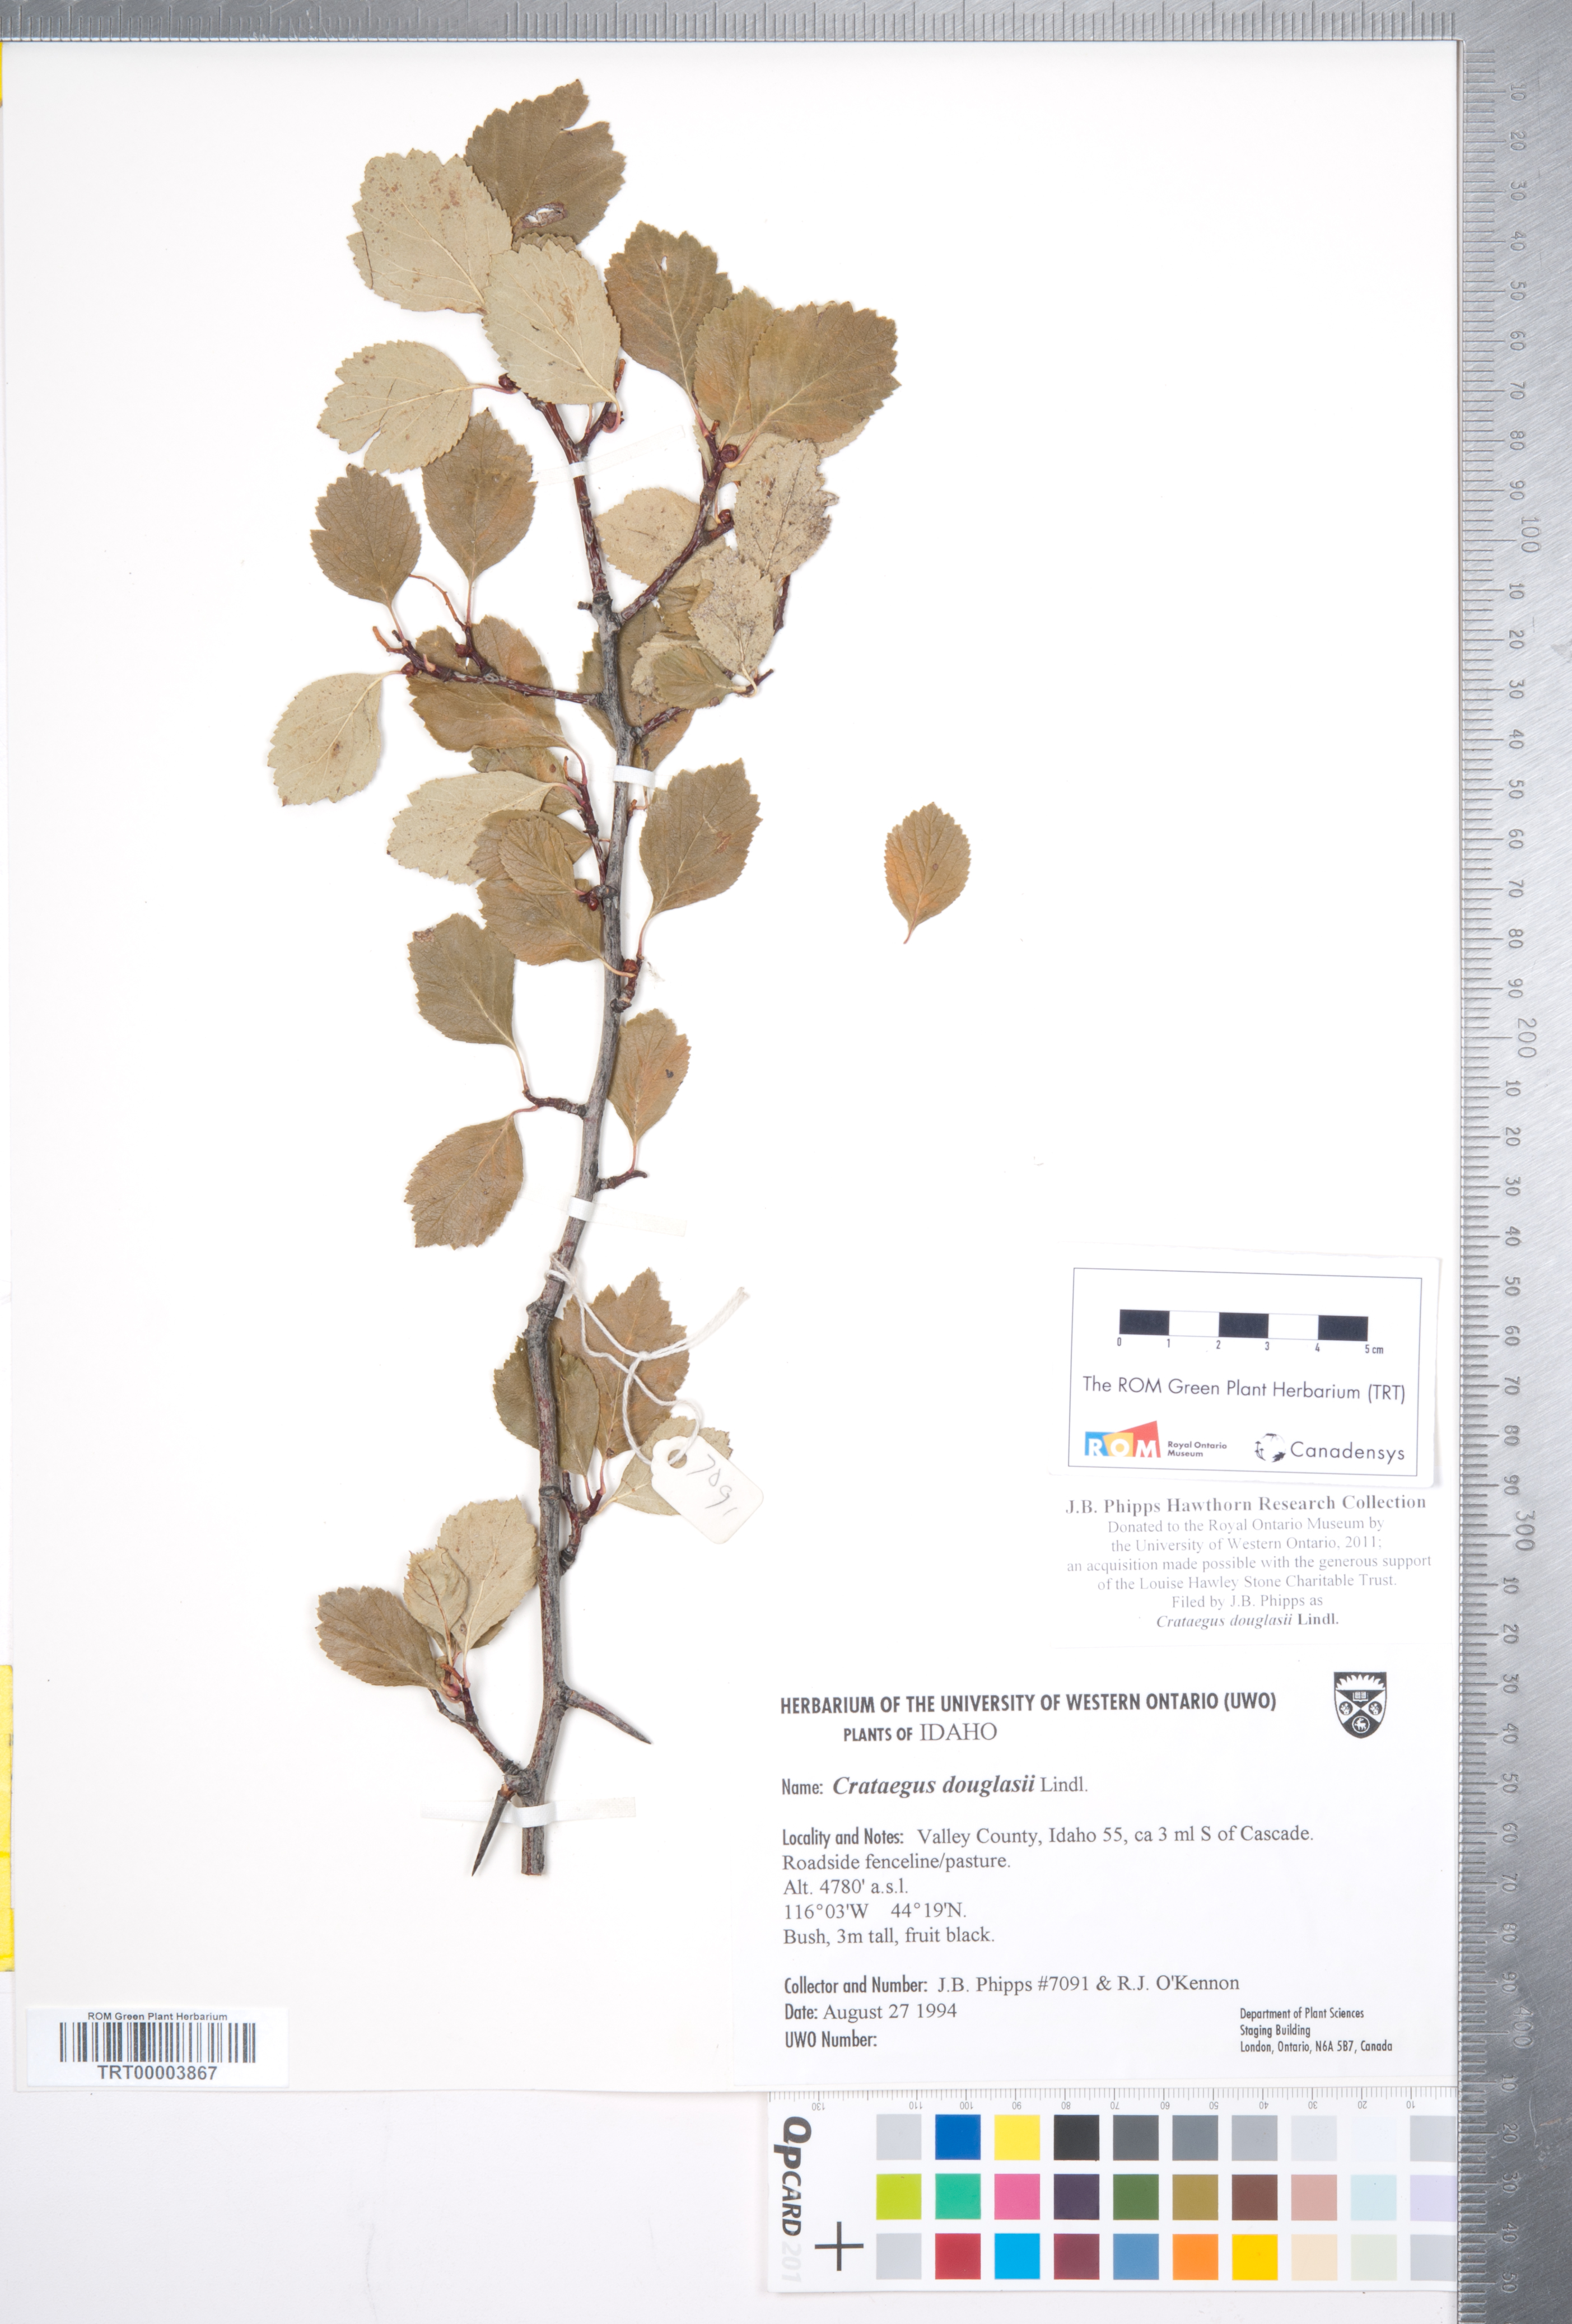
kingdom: Plantae
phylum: Tracheophyta
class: Magnoliopsida
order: Rosales
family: Rosaceae
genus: Crataegus
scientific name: Crataegus douglasii
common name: Black hawthorn
